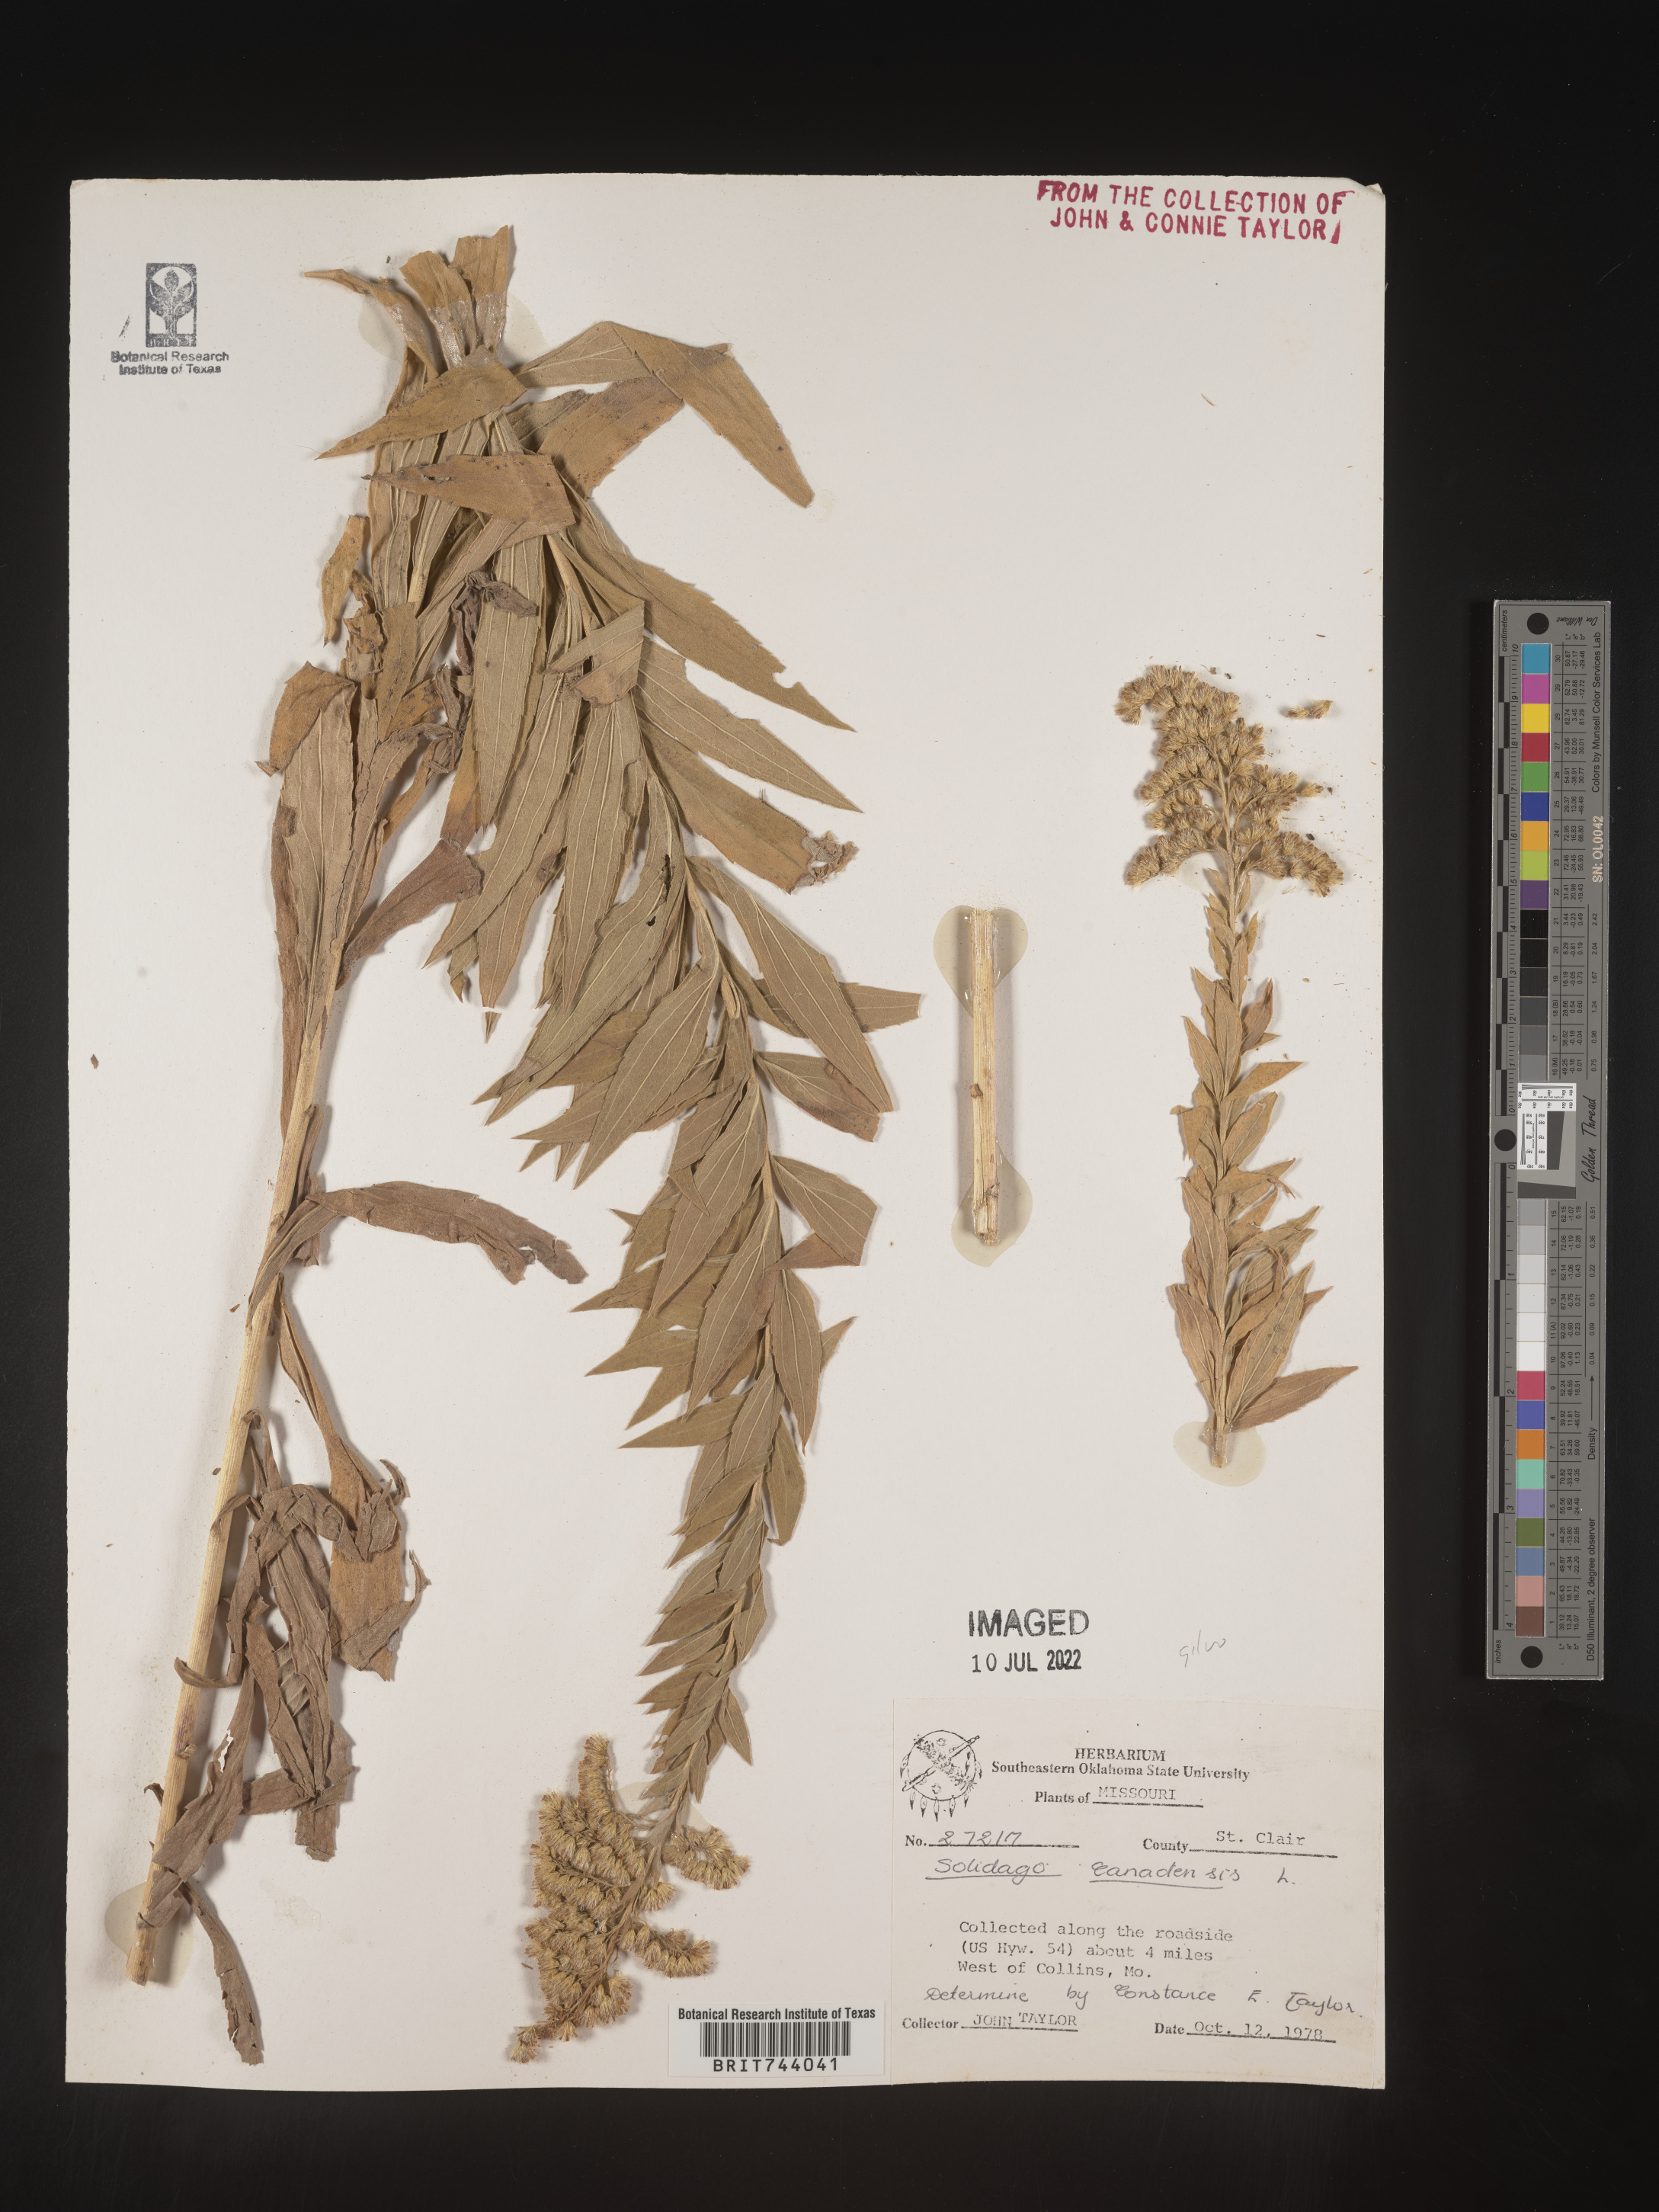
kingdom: Plantae
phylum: Tracheophyta
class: Magnoliopsida
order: Asterales
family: Asteraceae
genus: Solidago
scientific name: Solidago altissima
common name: Late goldenrod
